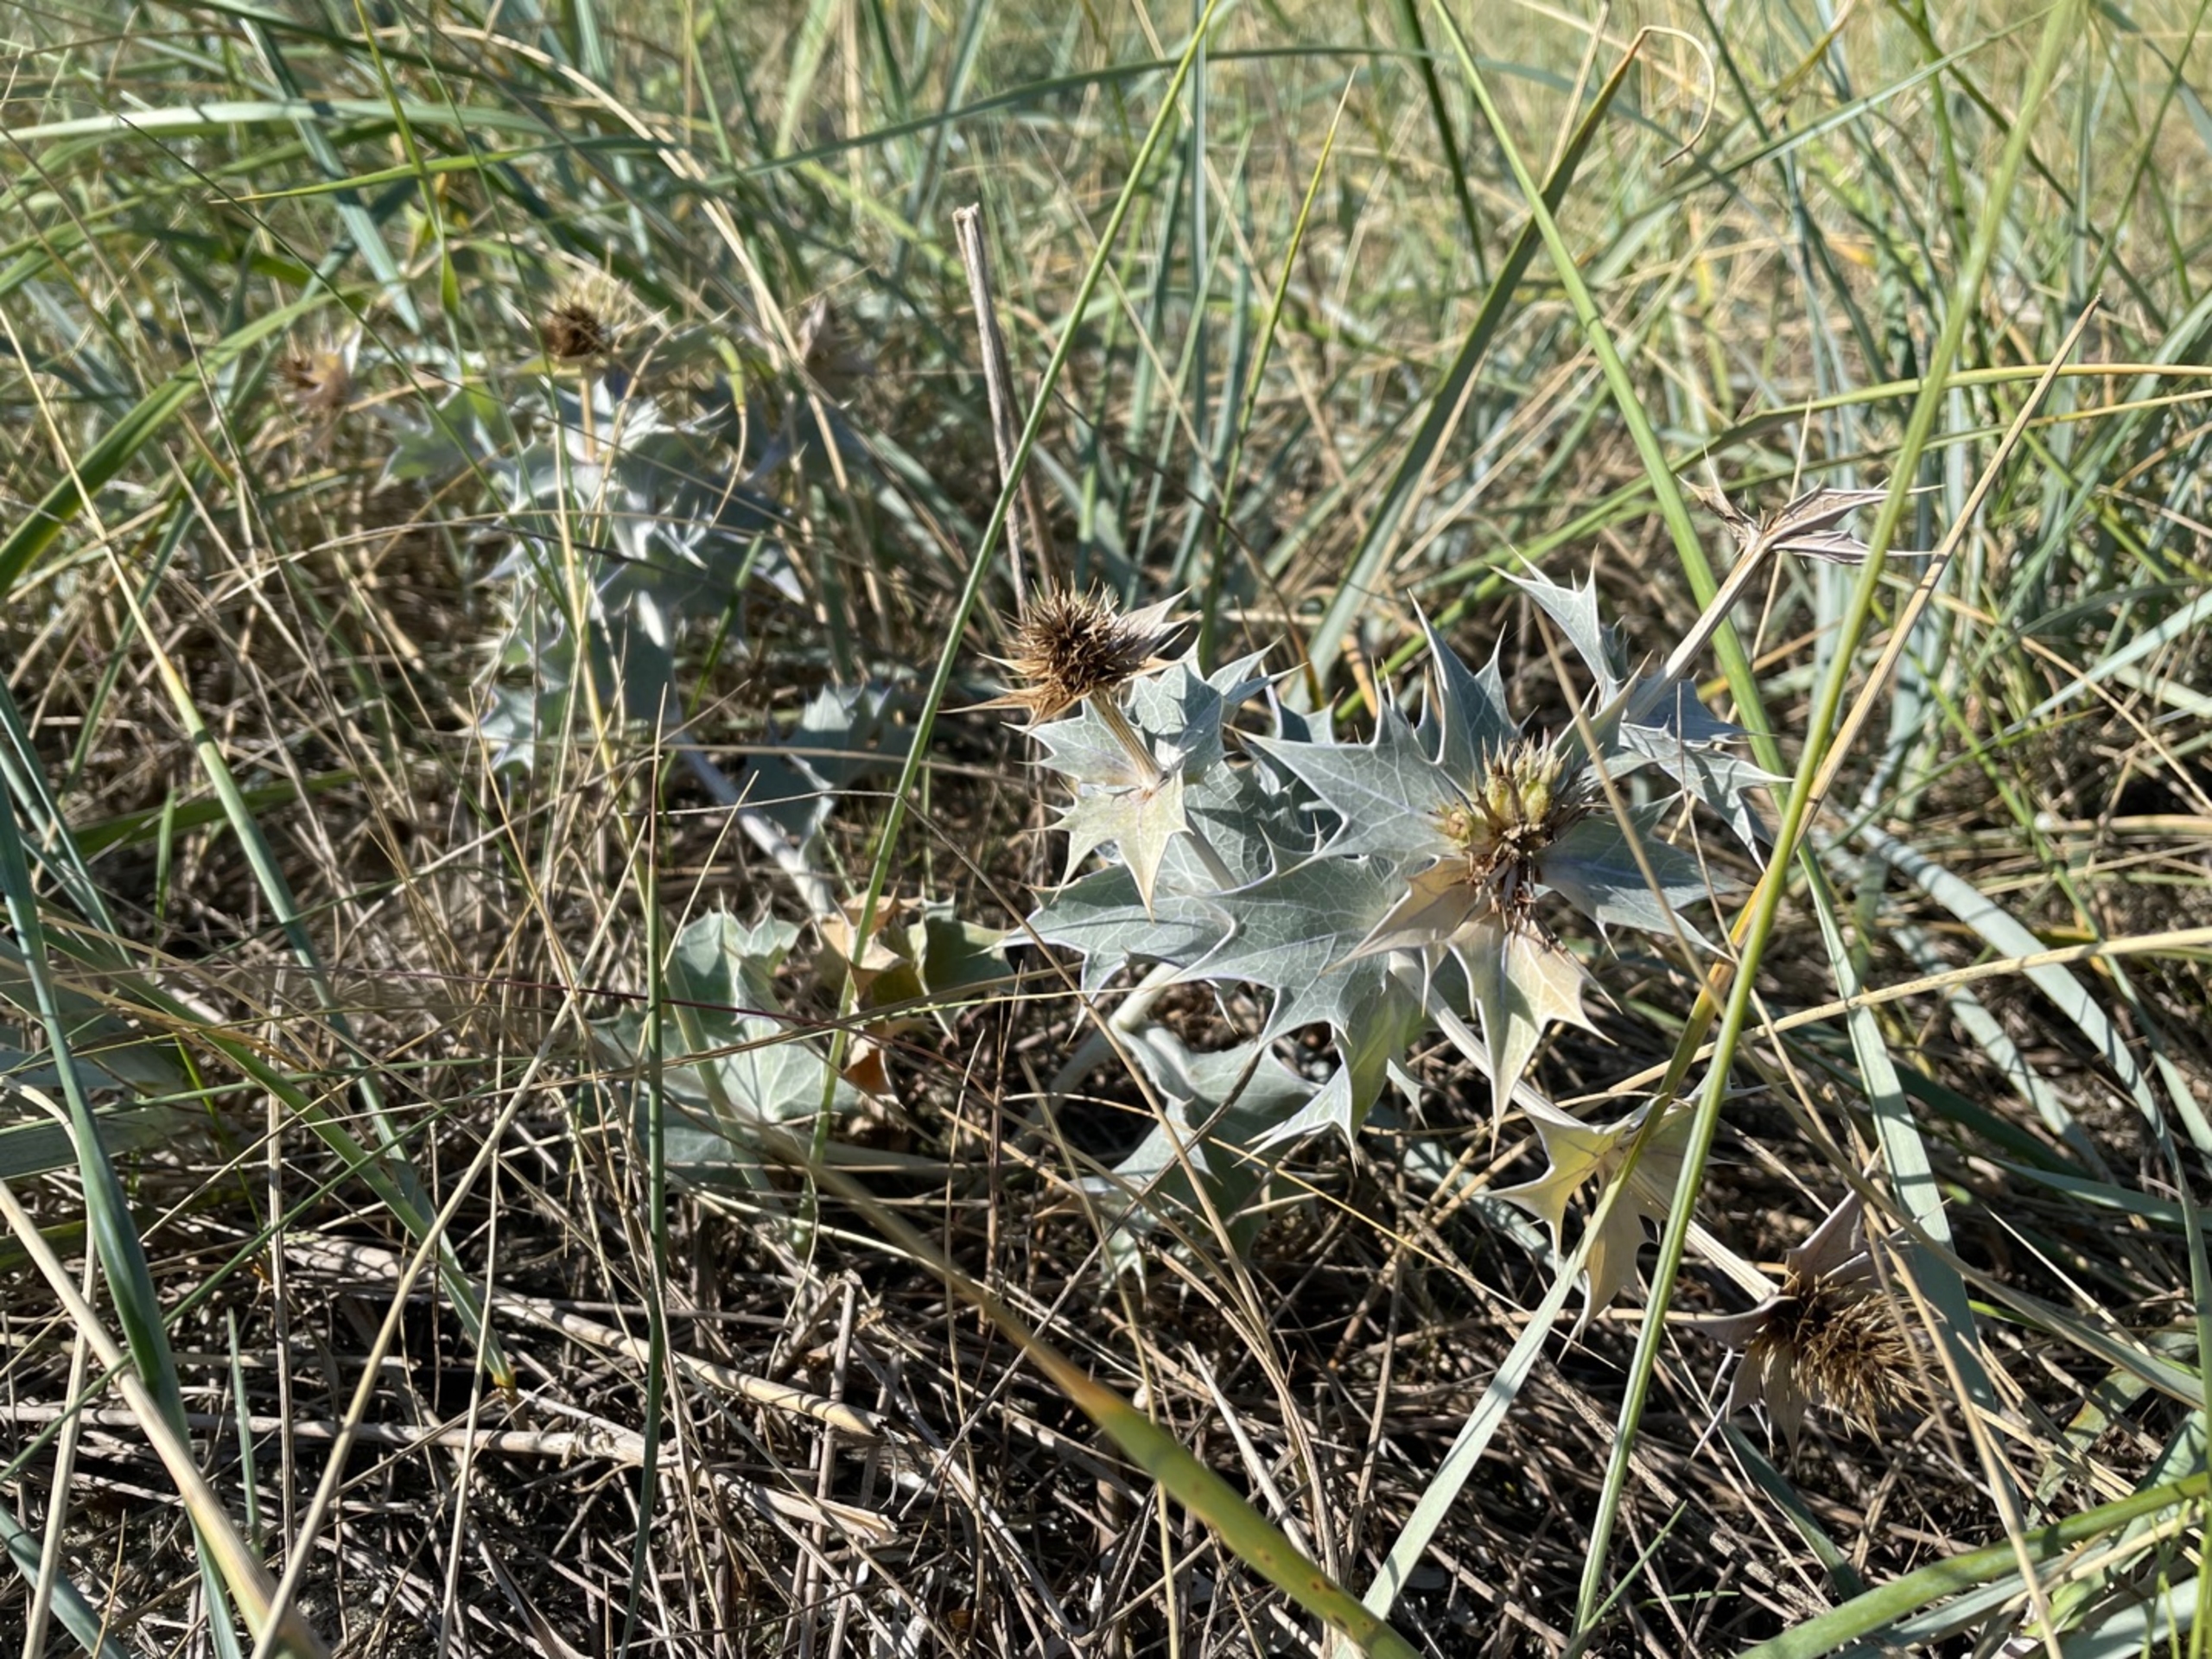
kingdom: Plantae
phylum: Tracheophyta
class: Magnoliopsida
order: Apiales
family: Apiaceae
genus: Eryngium
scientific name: Eryngium maritimum
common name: Strand-mandstro
